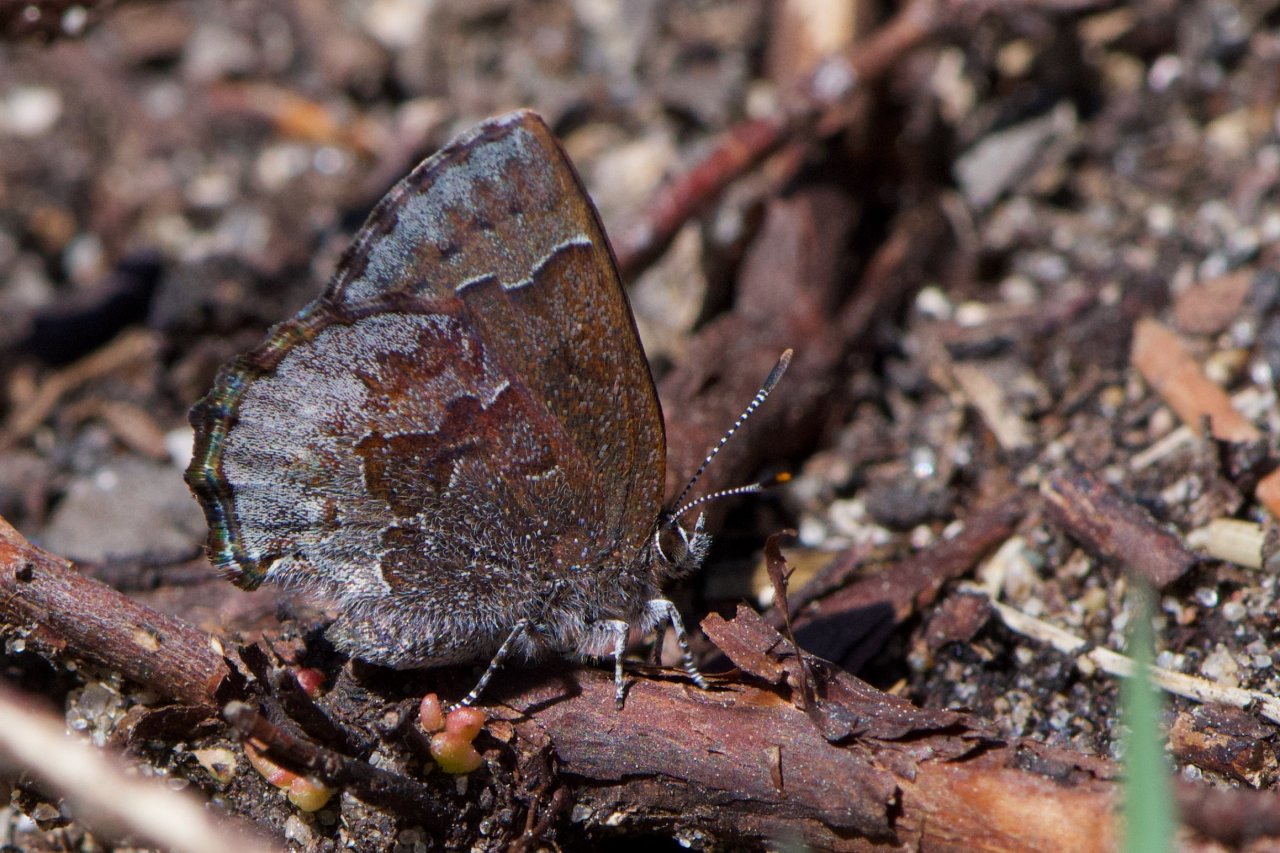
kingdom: Animalia
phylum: Arthropoda
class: Insecta
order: Lepidoptera
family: Lycaenidae
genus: Callophrys
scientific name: Callophrys polios
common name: Hoary Elfin
